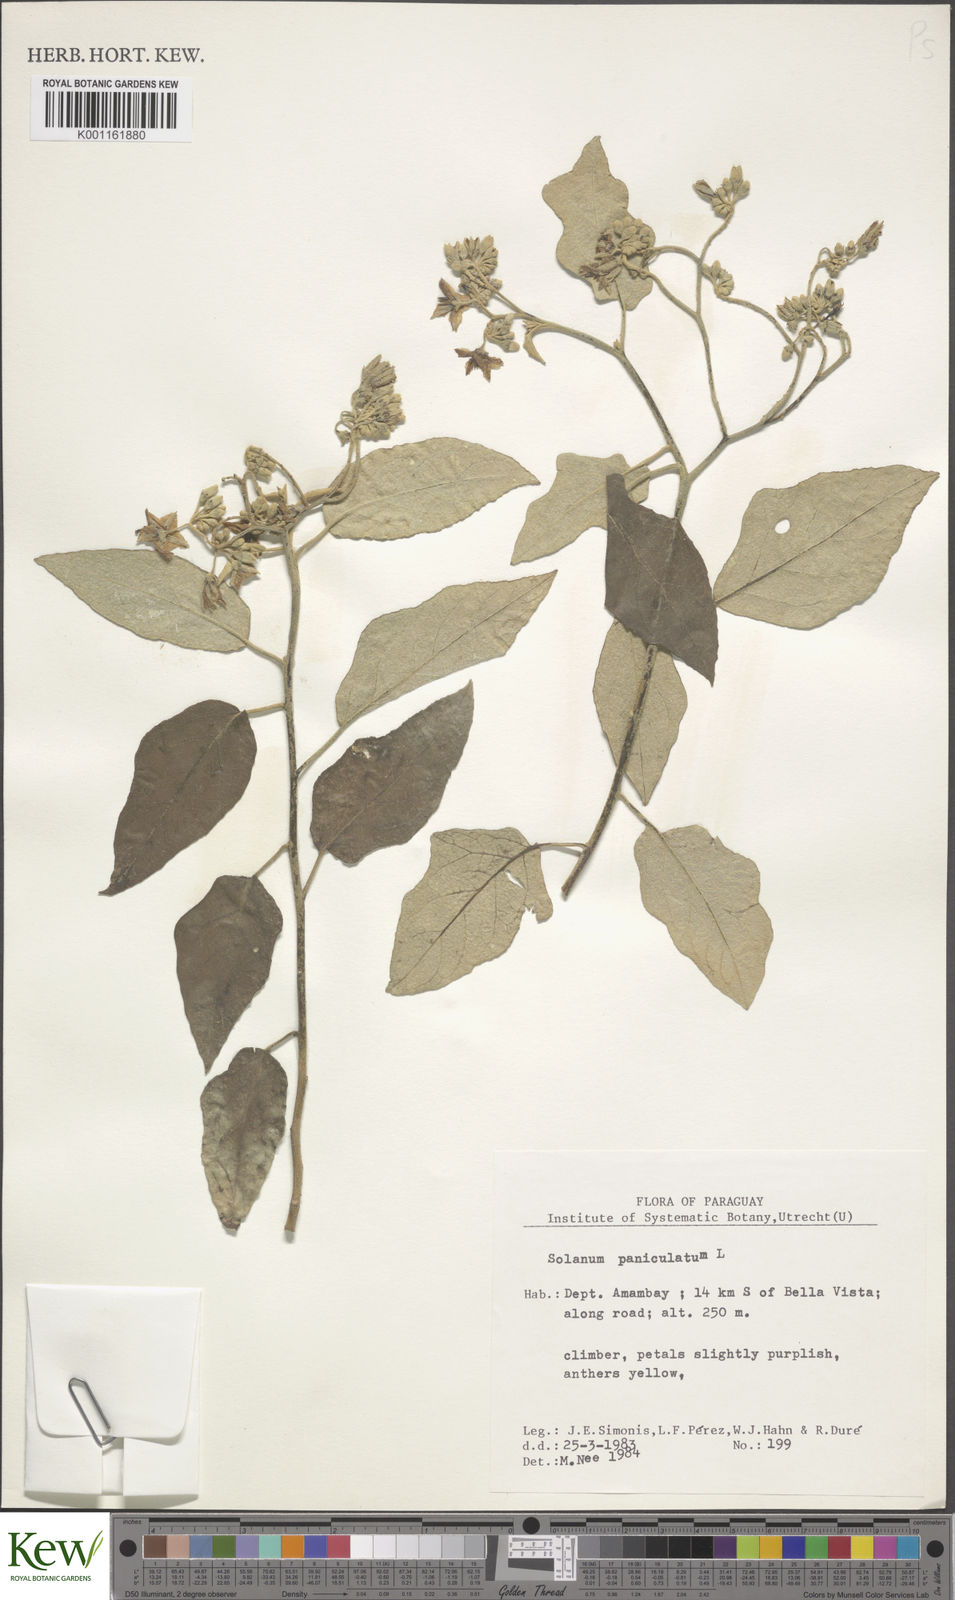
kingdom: Plantae
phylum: Tracheophyta
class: Magnoliopsida
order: Solanales
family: Solanaceae
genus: Solanum
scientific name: Solanum paniculatum
